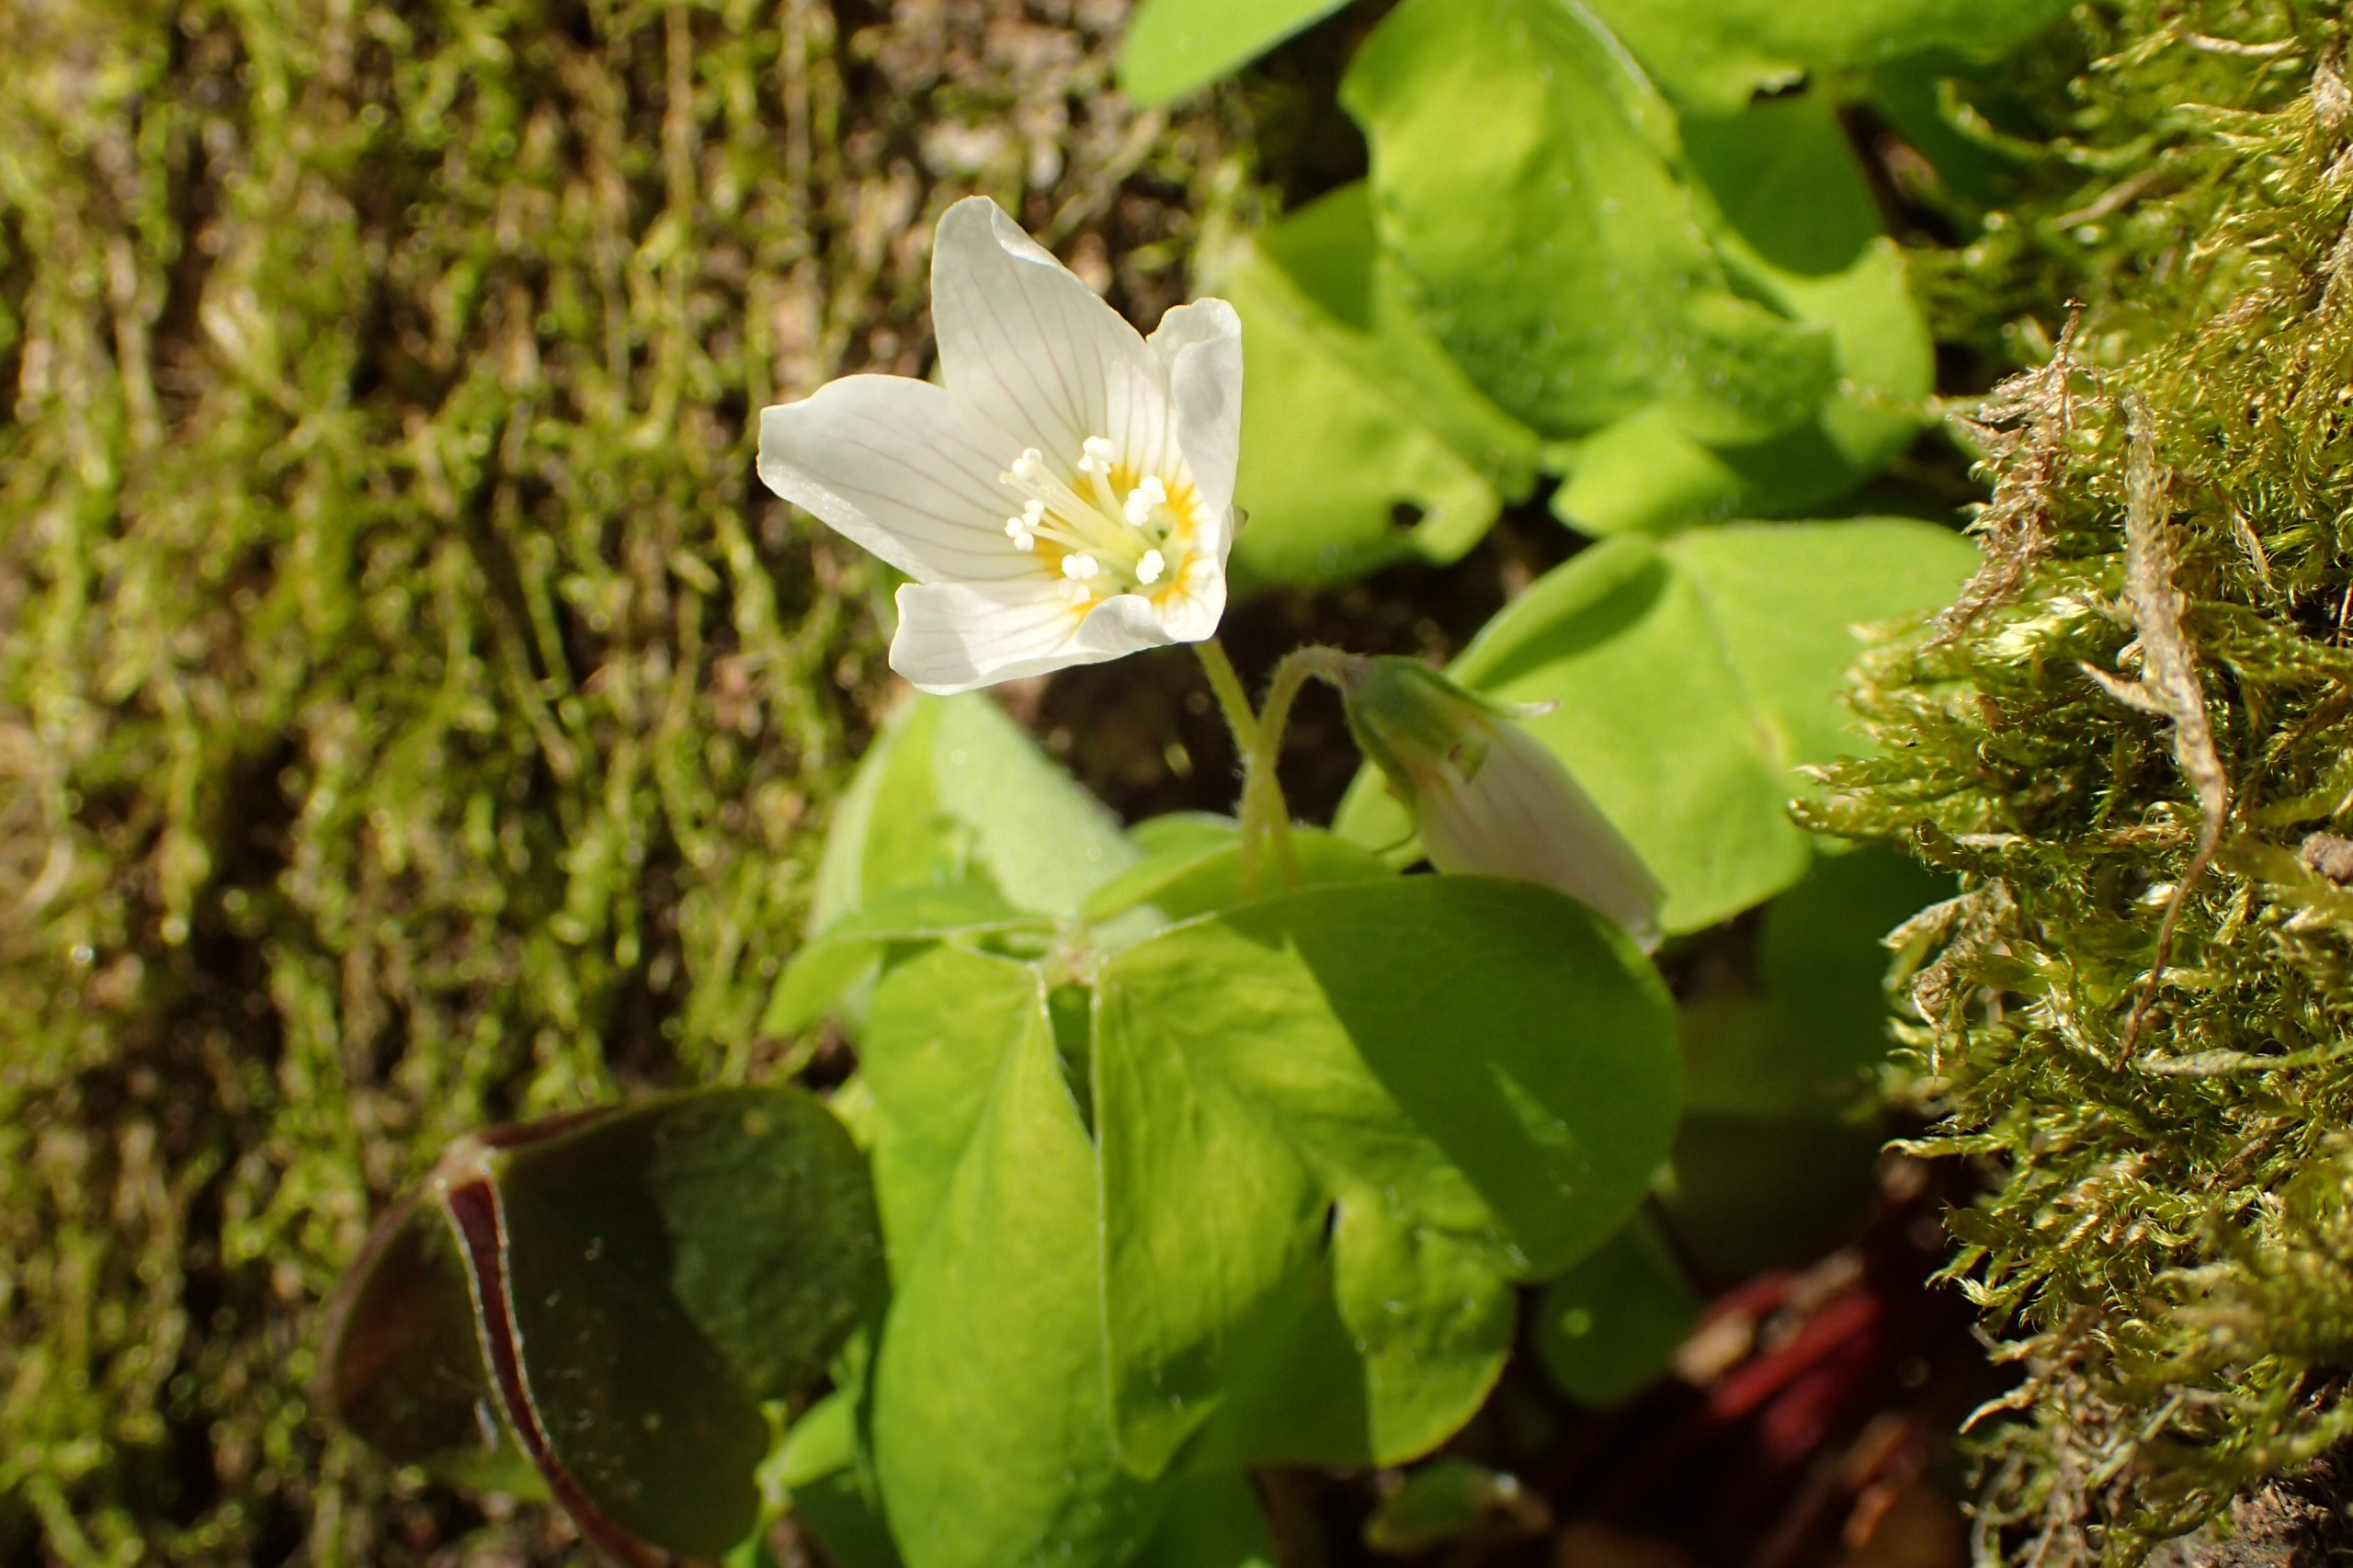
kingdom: Plantae
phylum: Tracheophyta
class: Magnoliopsida
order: Oxalidales
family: Oxalidaceae
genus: Oxalis
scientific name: Oxalis acetosella
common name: Skovsyre
